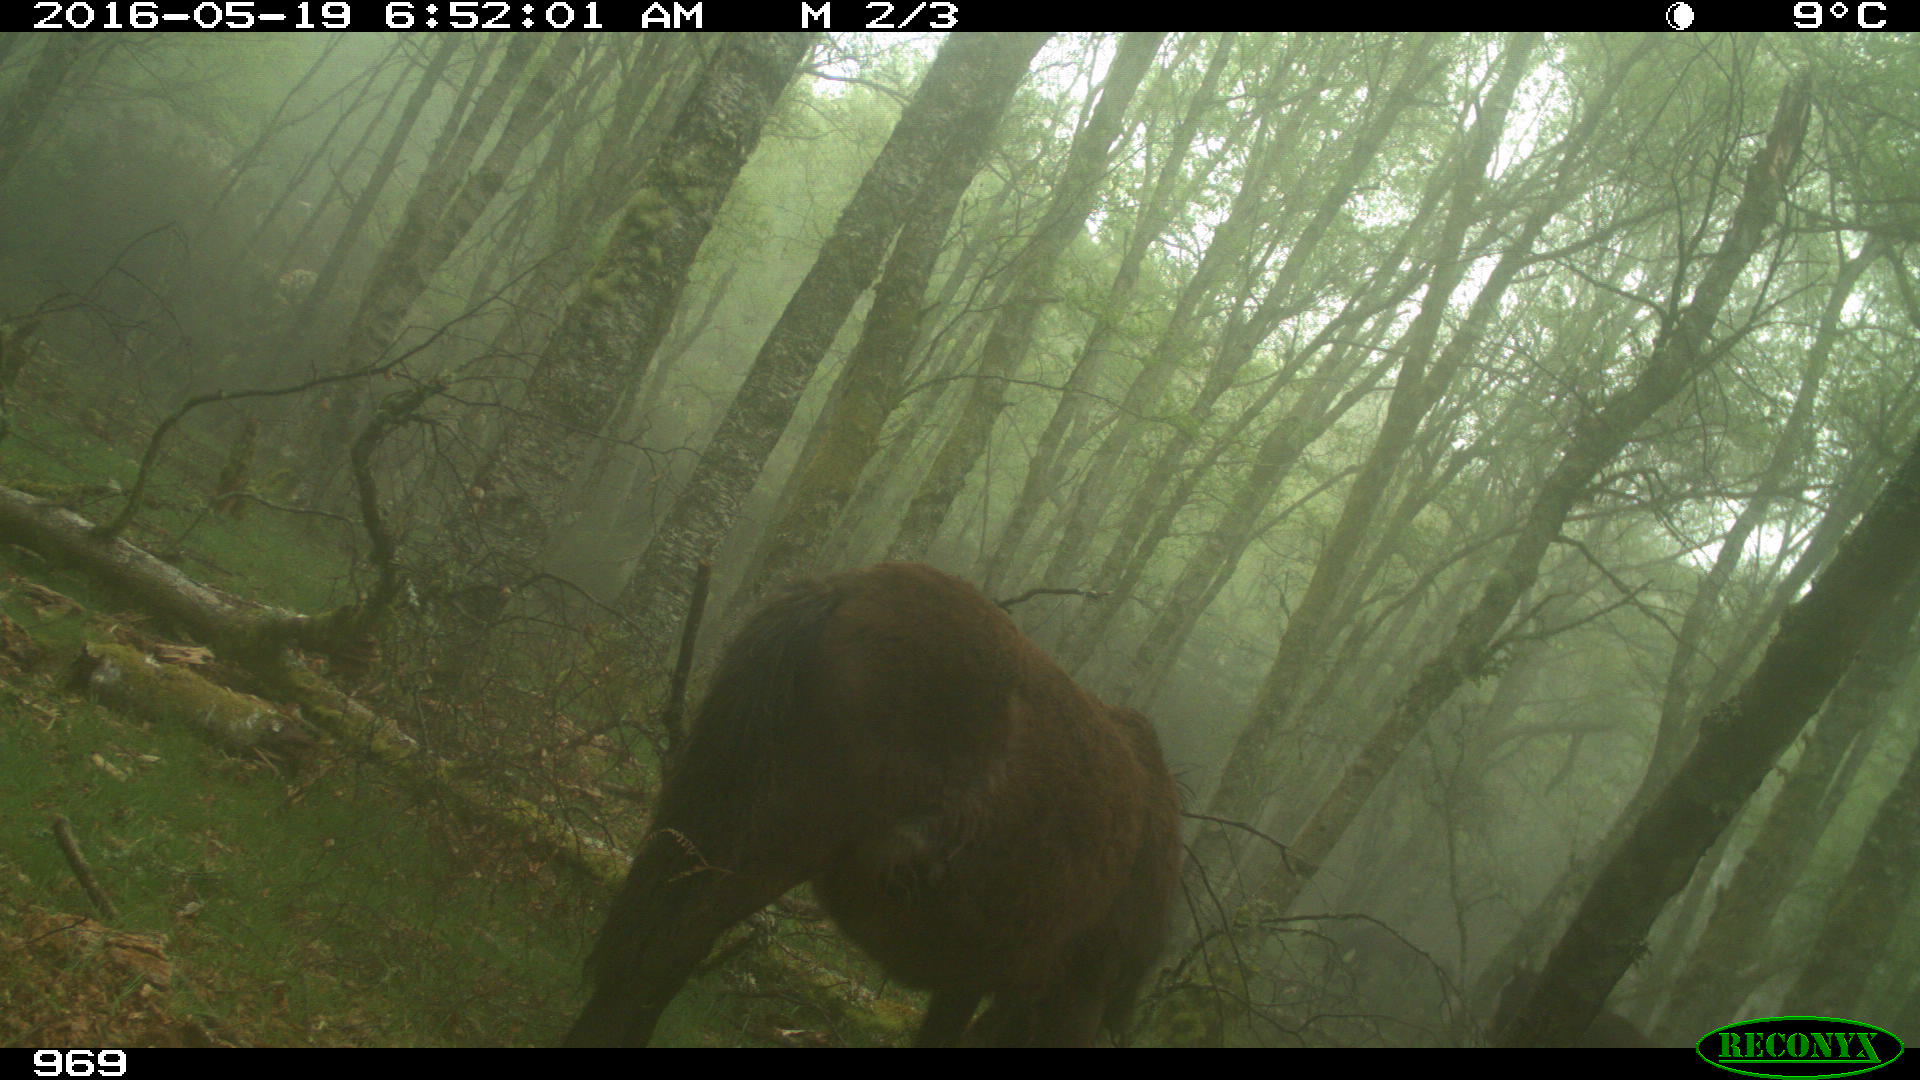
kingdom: Animalia
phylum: Chordata
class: Mammalia
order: Perissodactyla
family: Equidae
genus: Equus
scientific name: Equus caballus
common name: Horse
